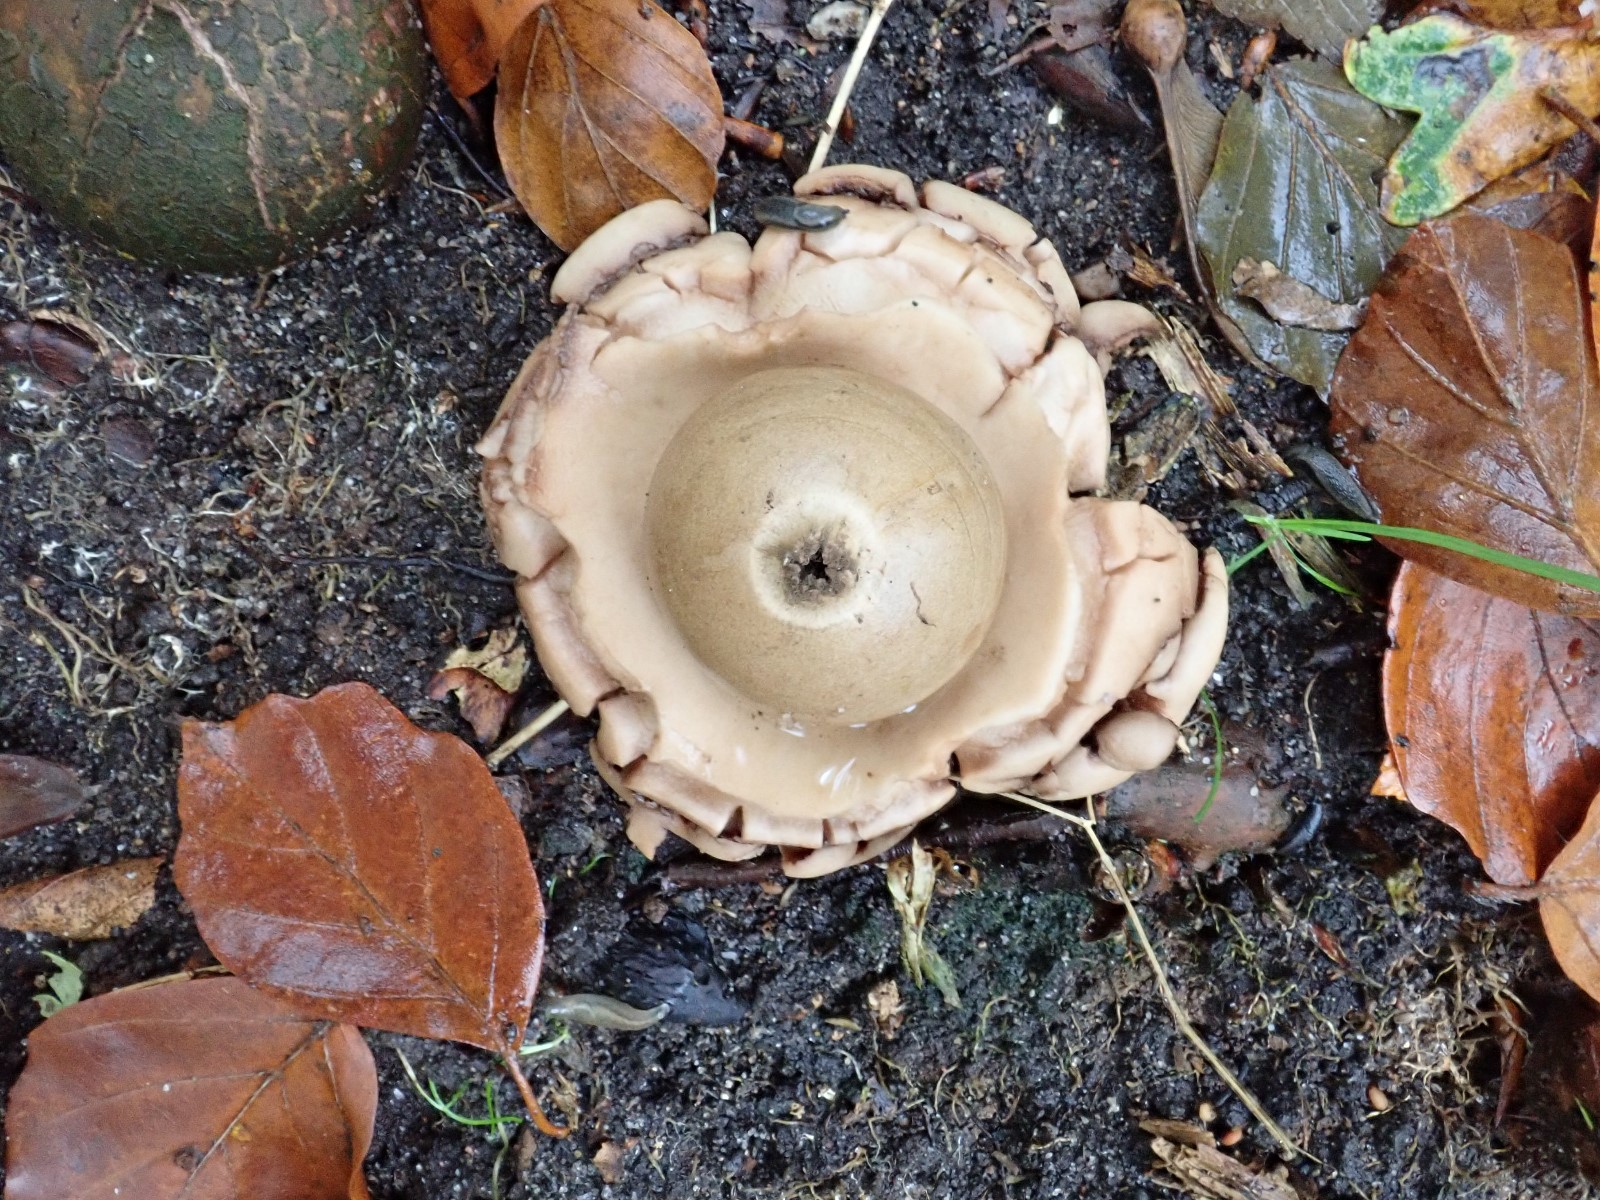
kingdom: Fungi
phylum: Basidiomycota
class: Agaricomycetes
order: Geastrales
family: Geastraceae
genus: Geastrum
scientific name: Geastrum michelianum
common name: kødet stjernebold
